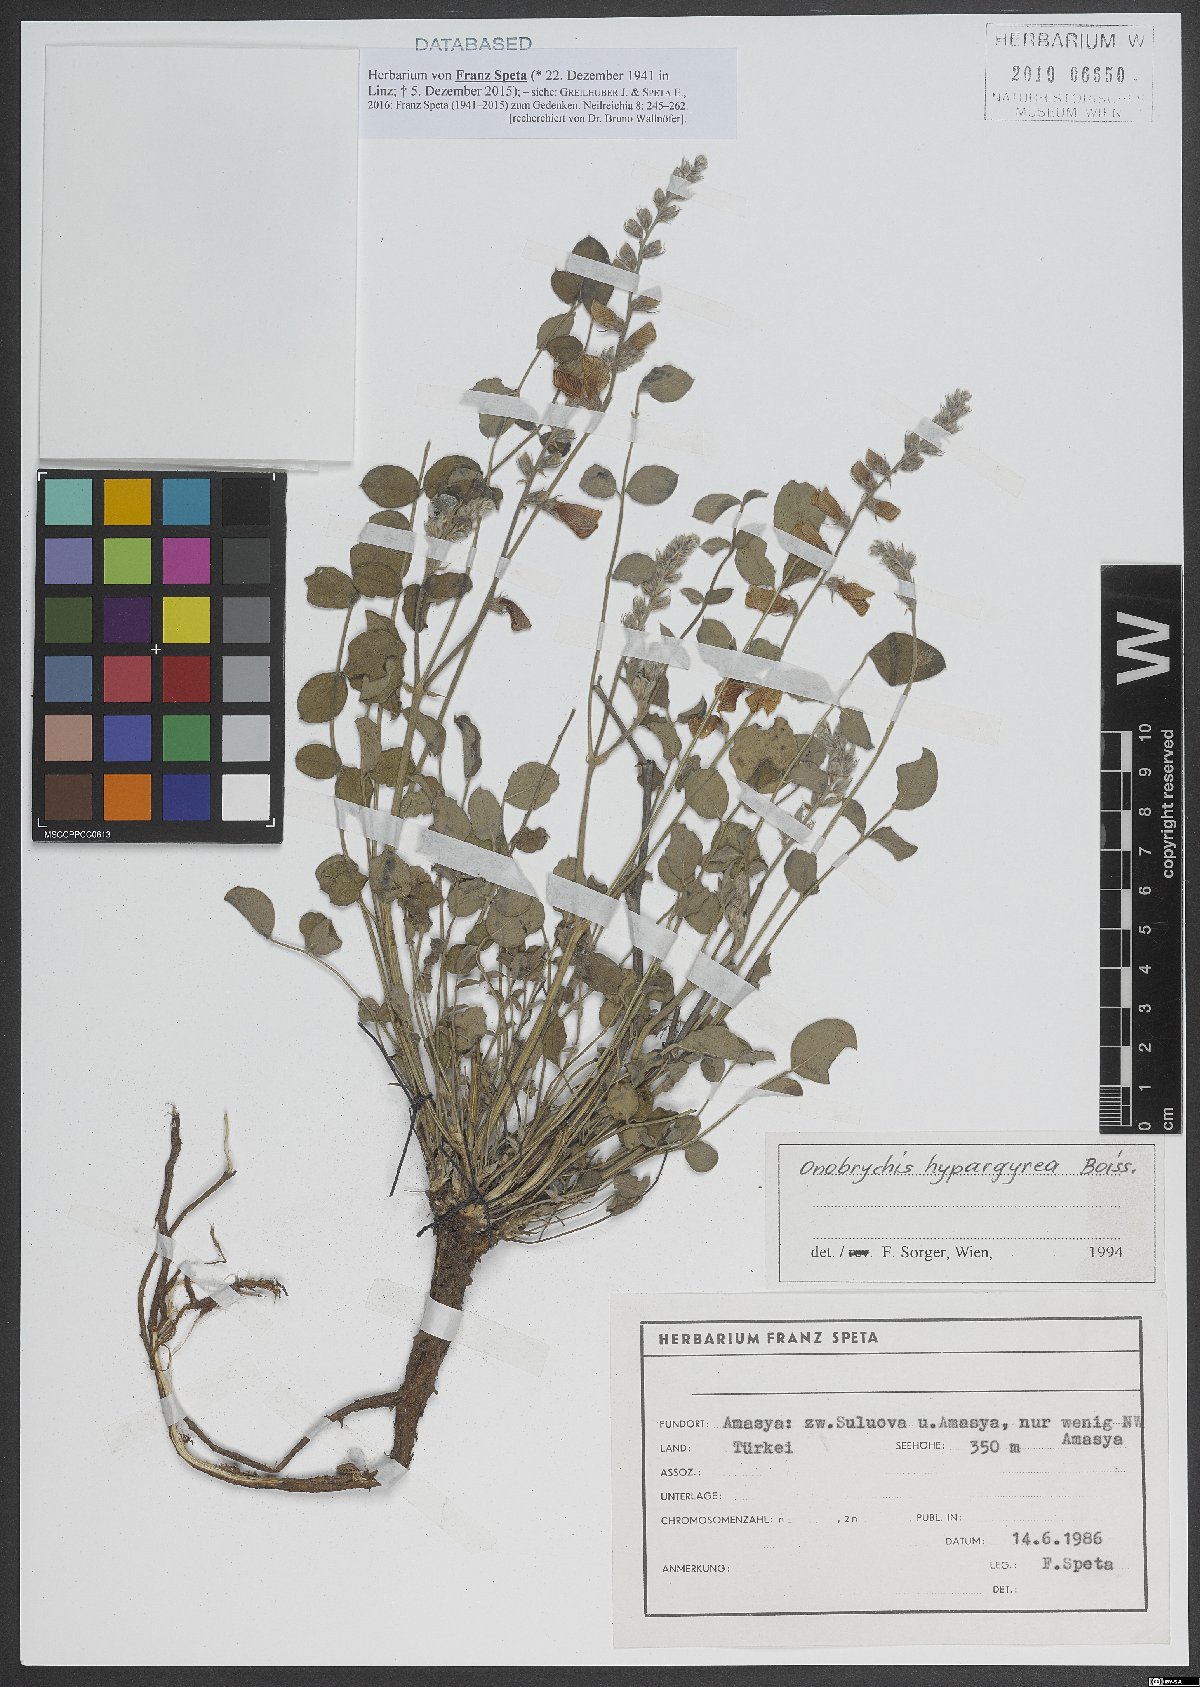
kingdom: Plantae
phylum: Tracheophyta
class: Magnoliopsida
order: Fabales
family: Fabaceae
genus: Onobrychis
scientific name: Onobrychis hypargyrea
